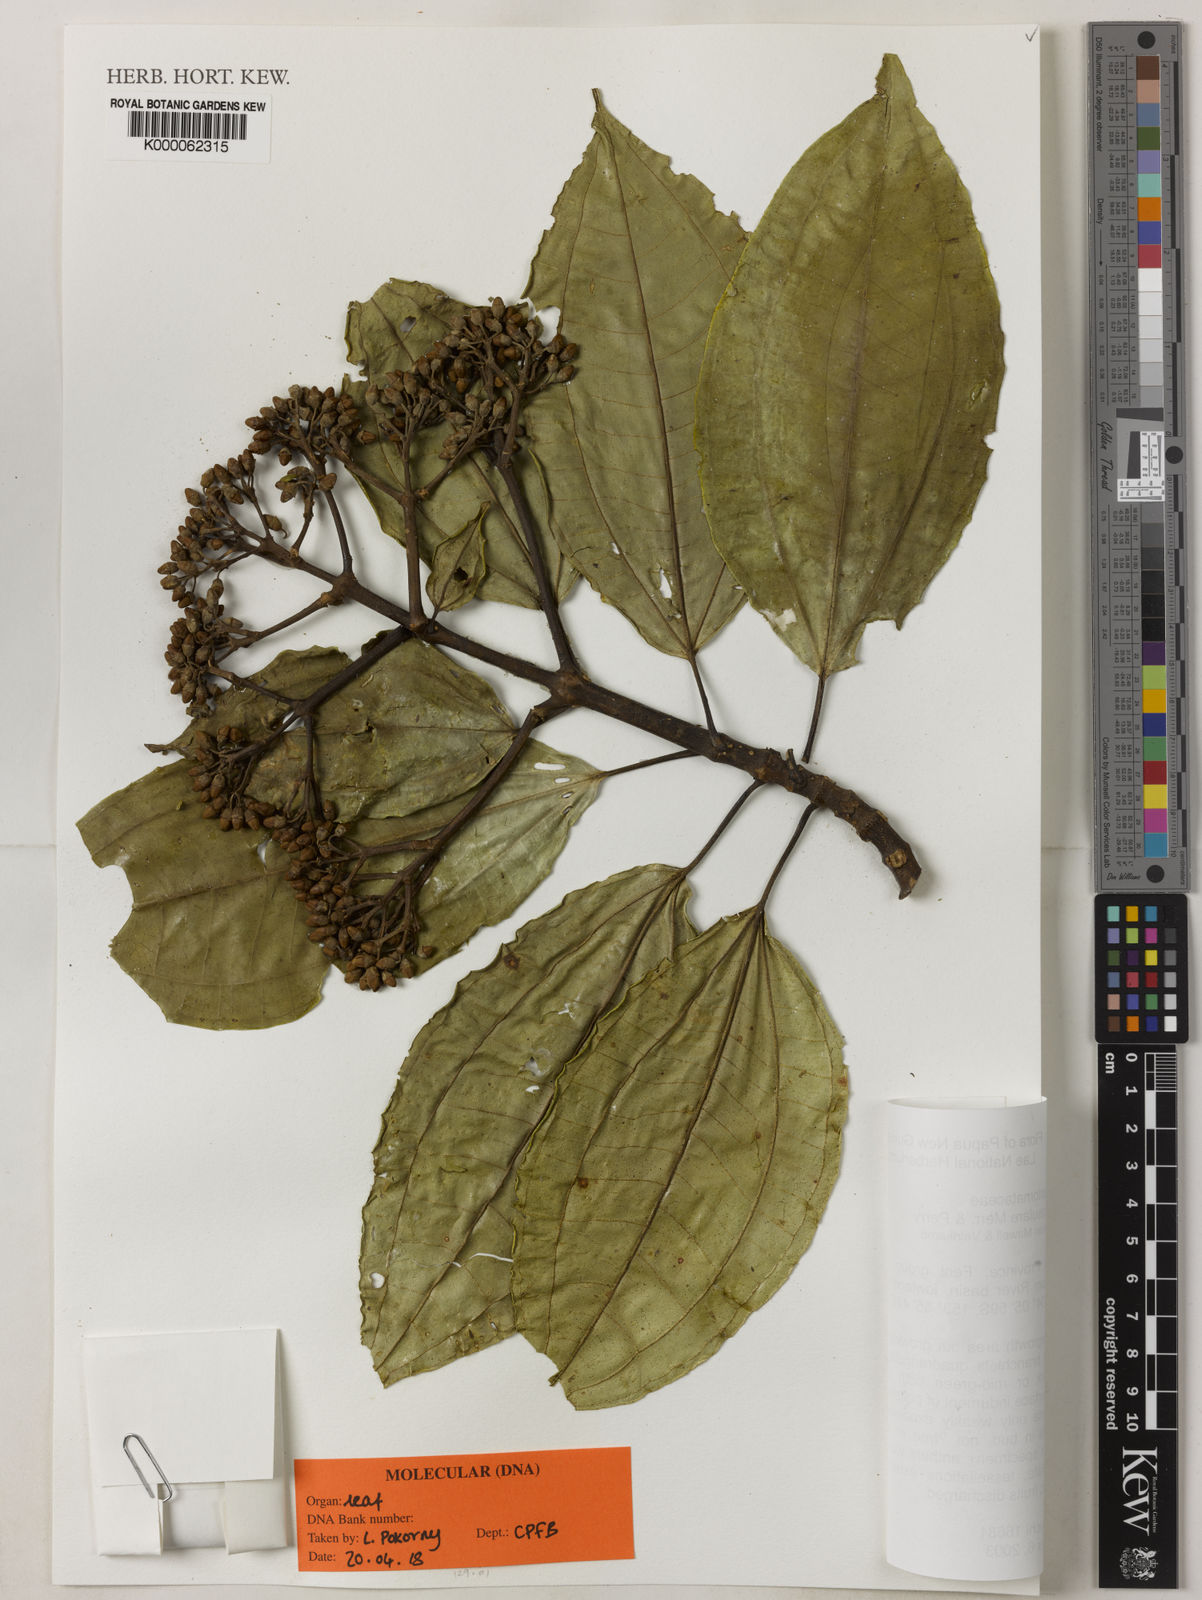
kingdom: Plantae
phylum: Tracheophyta
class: Magnoliopsida
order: Myrtales
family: Melastomataceae
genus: Astronidium
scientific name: Astronidium insulare
